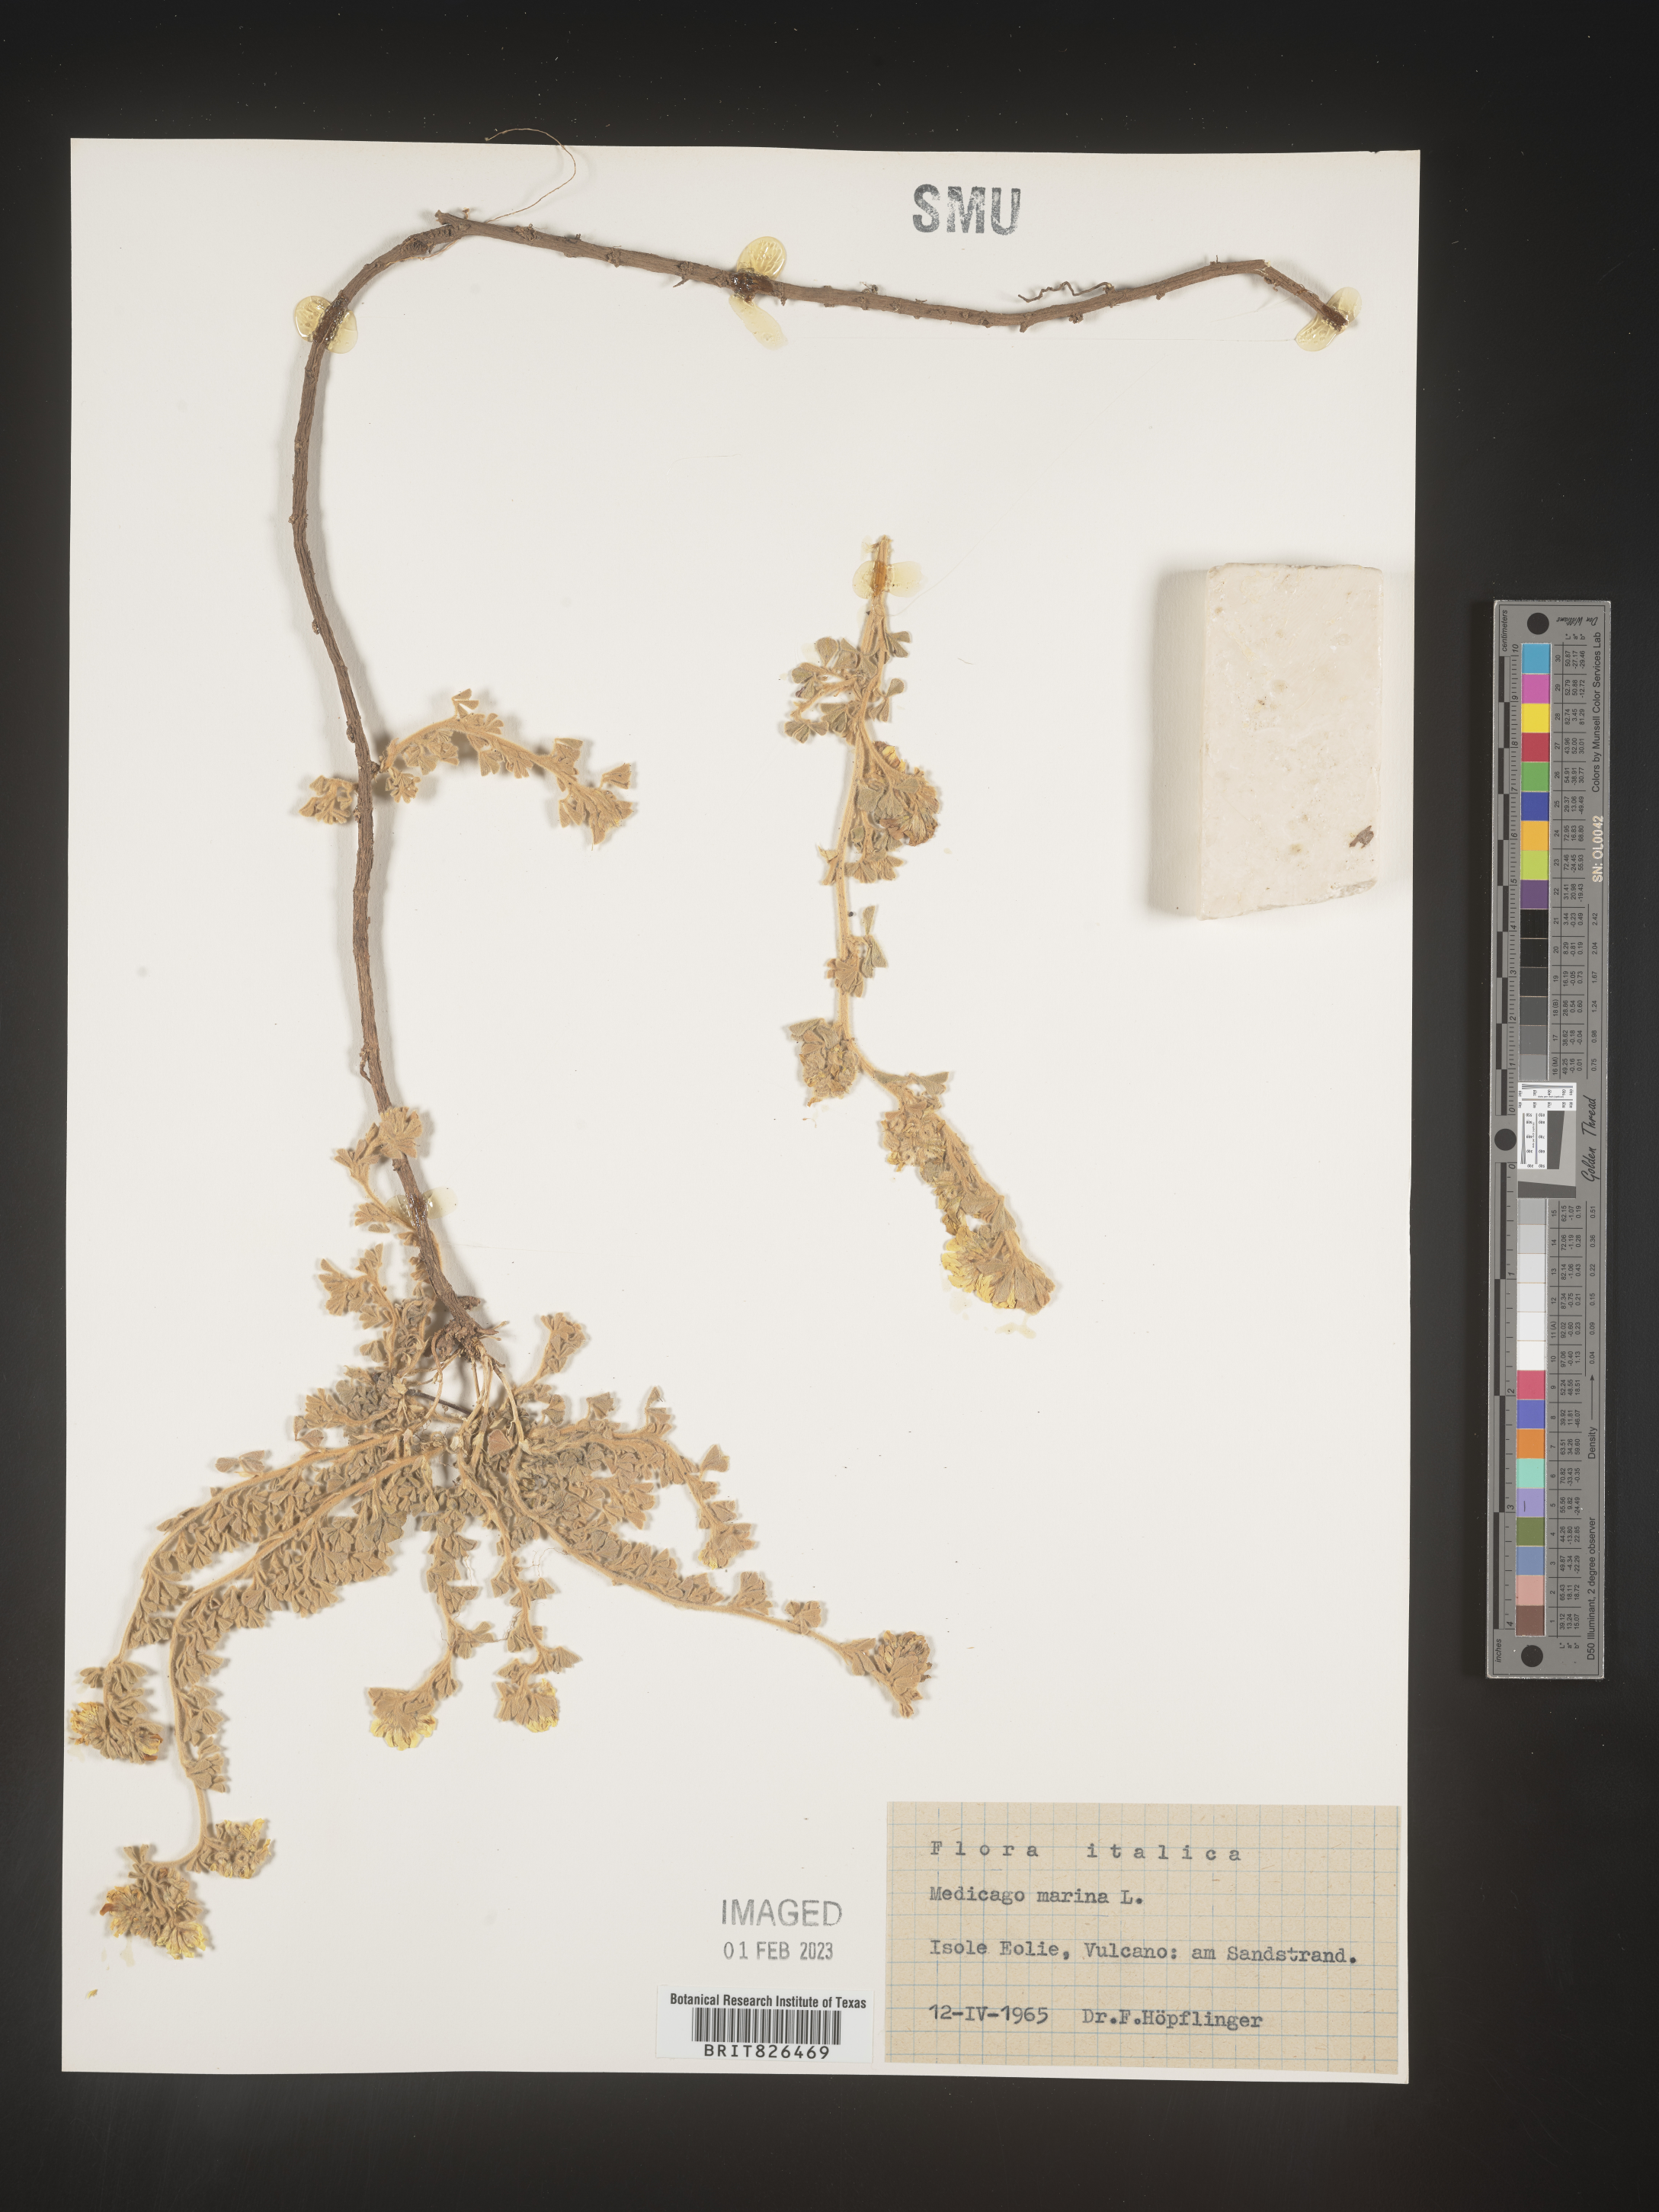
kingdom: Plantae
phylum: Tracheophyta
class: Magnoliopsida
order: Fabales
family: Fabaceae
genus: Medicago
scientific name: Medicago
